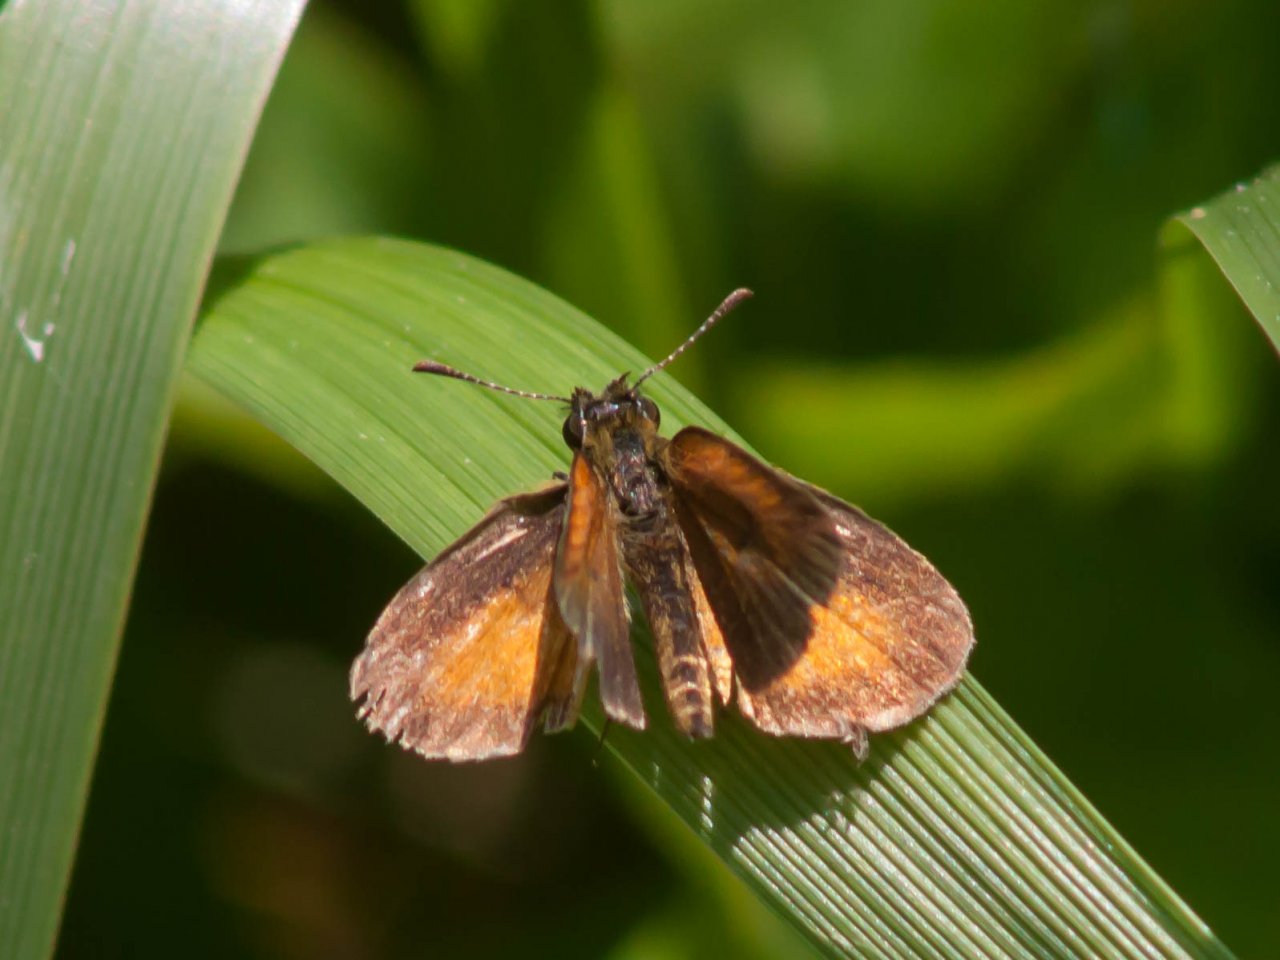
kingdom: Animalia
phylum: Arthropoda
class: Insecta
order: Lepidoptera
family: Hesperiidae
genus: Ancyloxypha
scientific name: Ancyloxypha numitor
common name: Least Skipper
